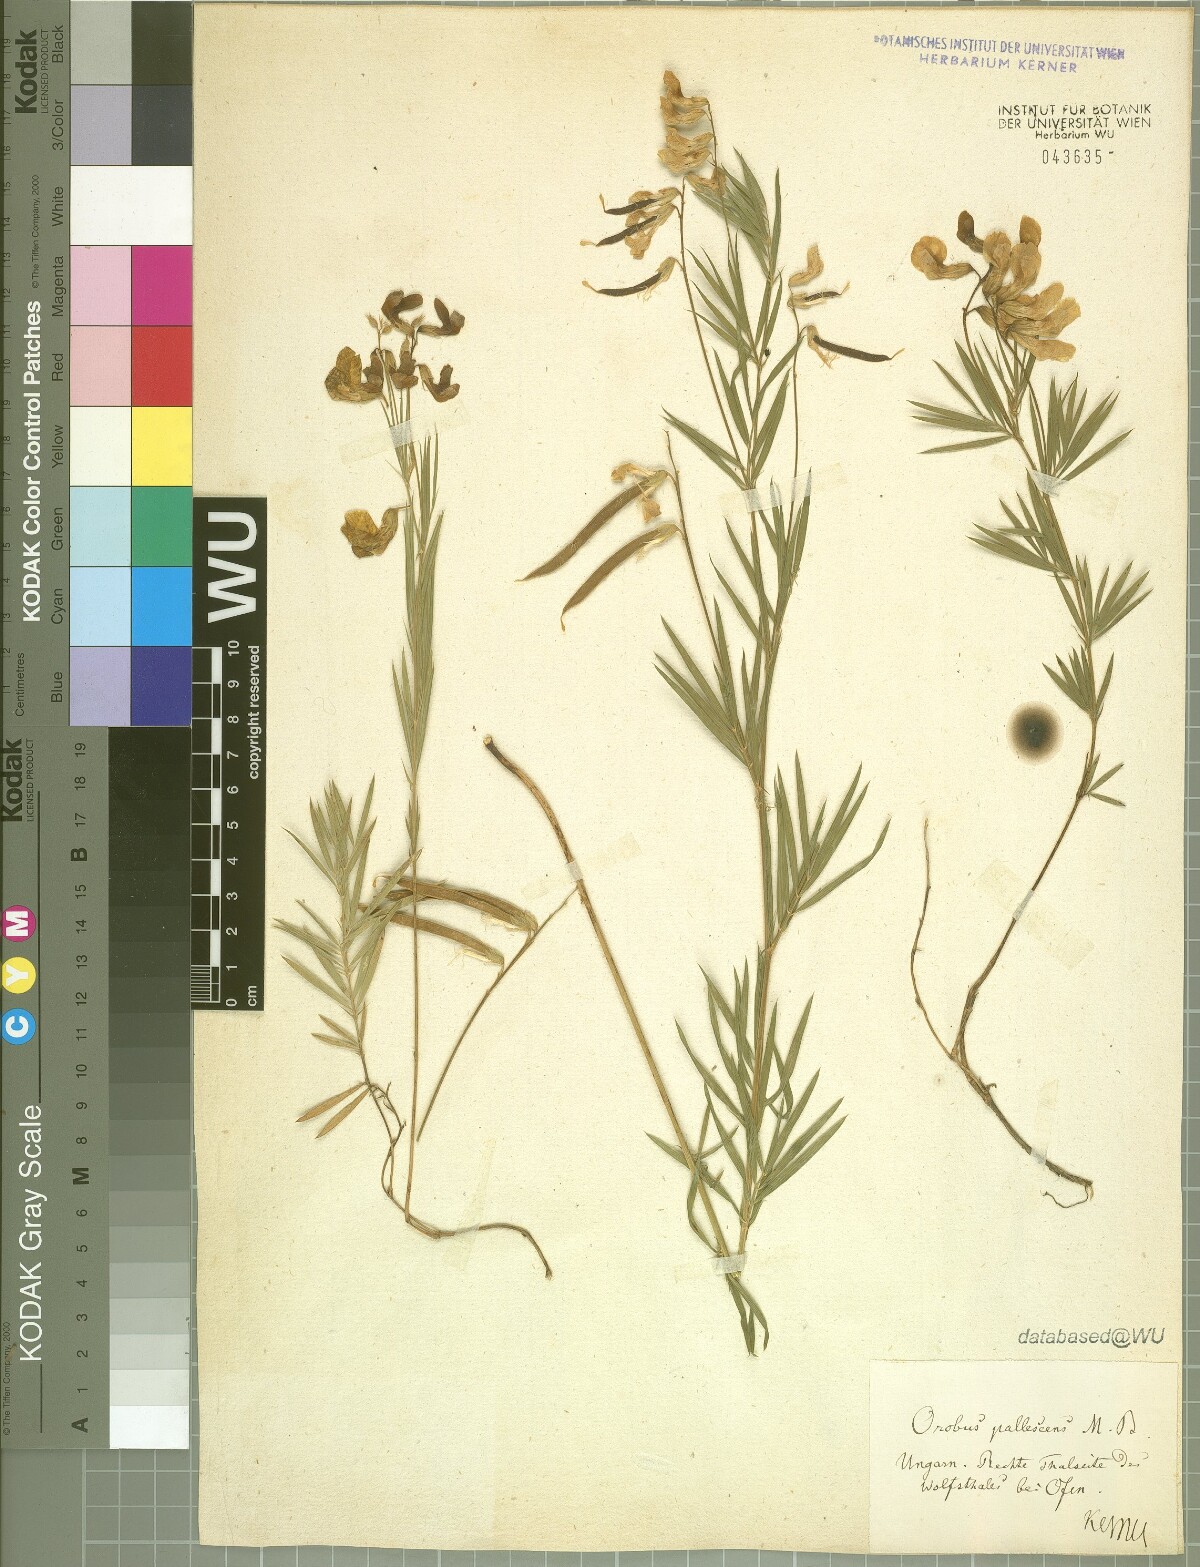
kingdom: Plantae
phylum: Tracheophyta
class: Magnoliopsida
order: Fabales
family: Fabaceae
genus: Lathyrus
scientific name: Lathyrus pallescens
